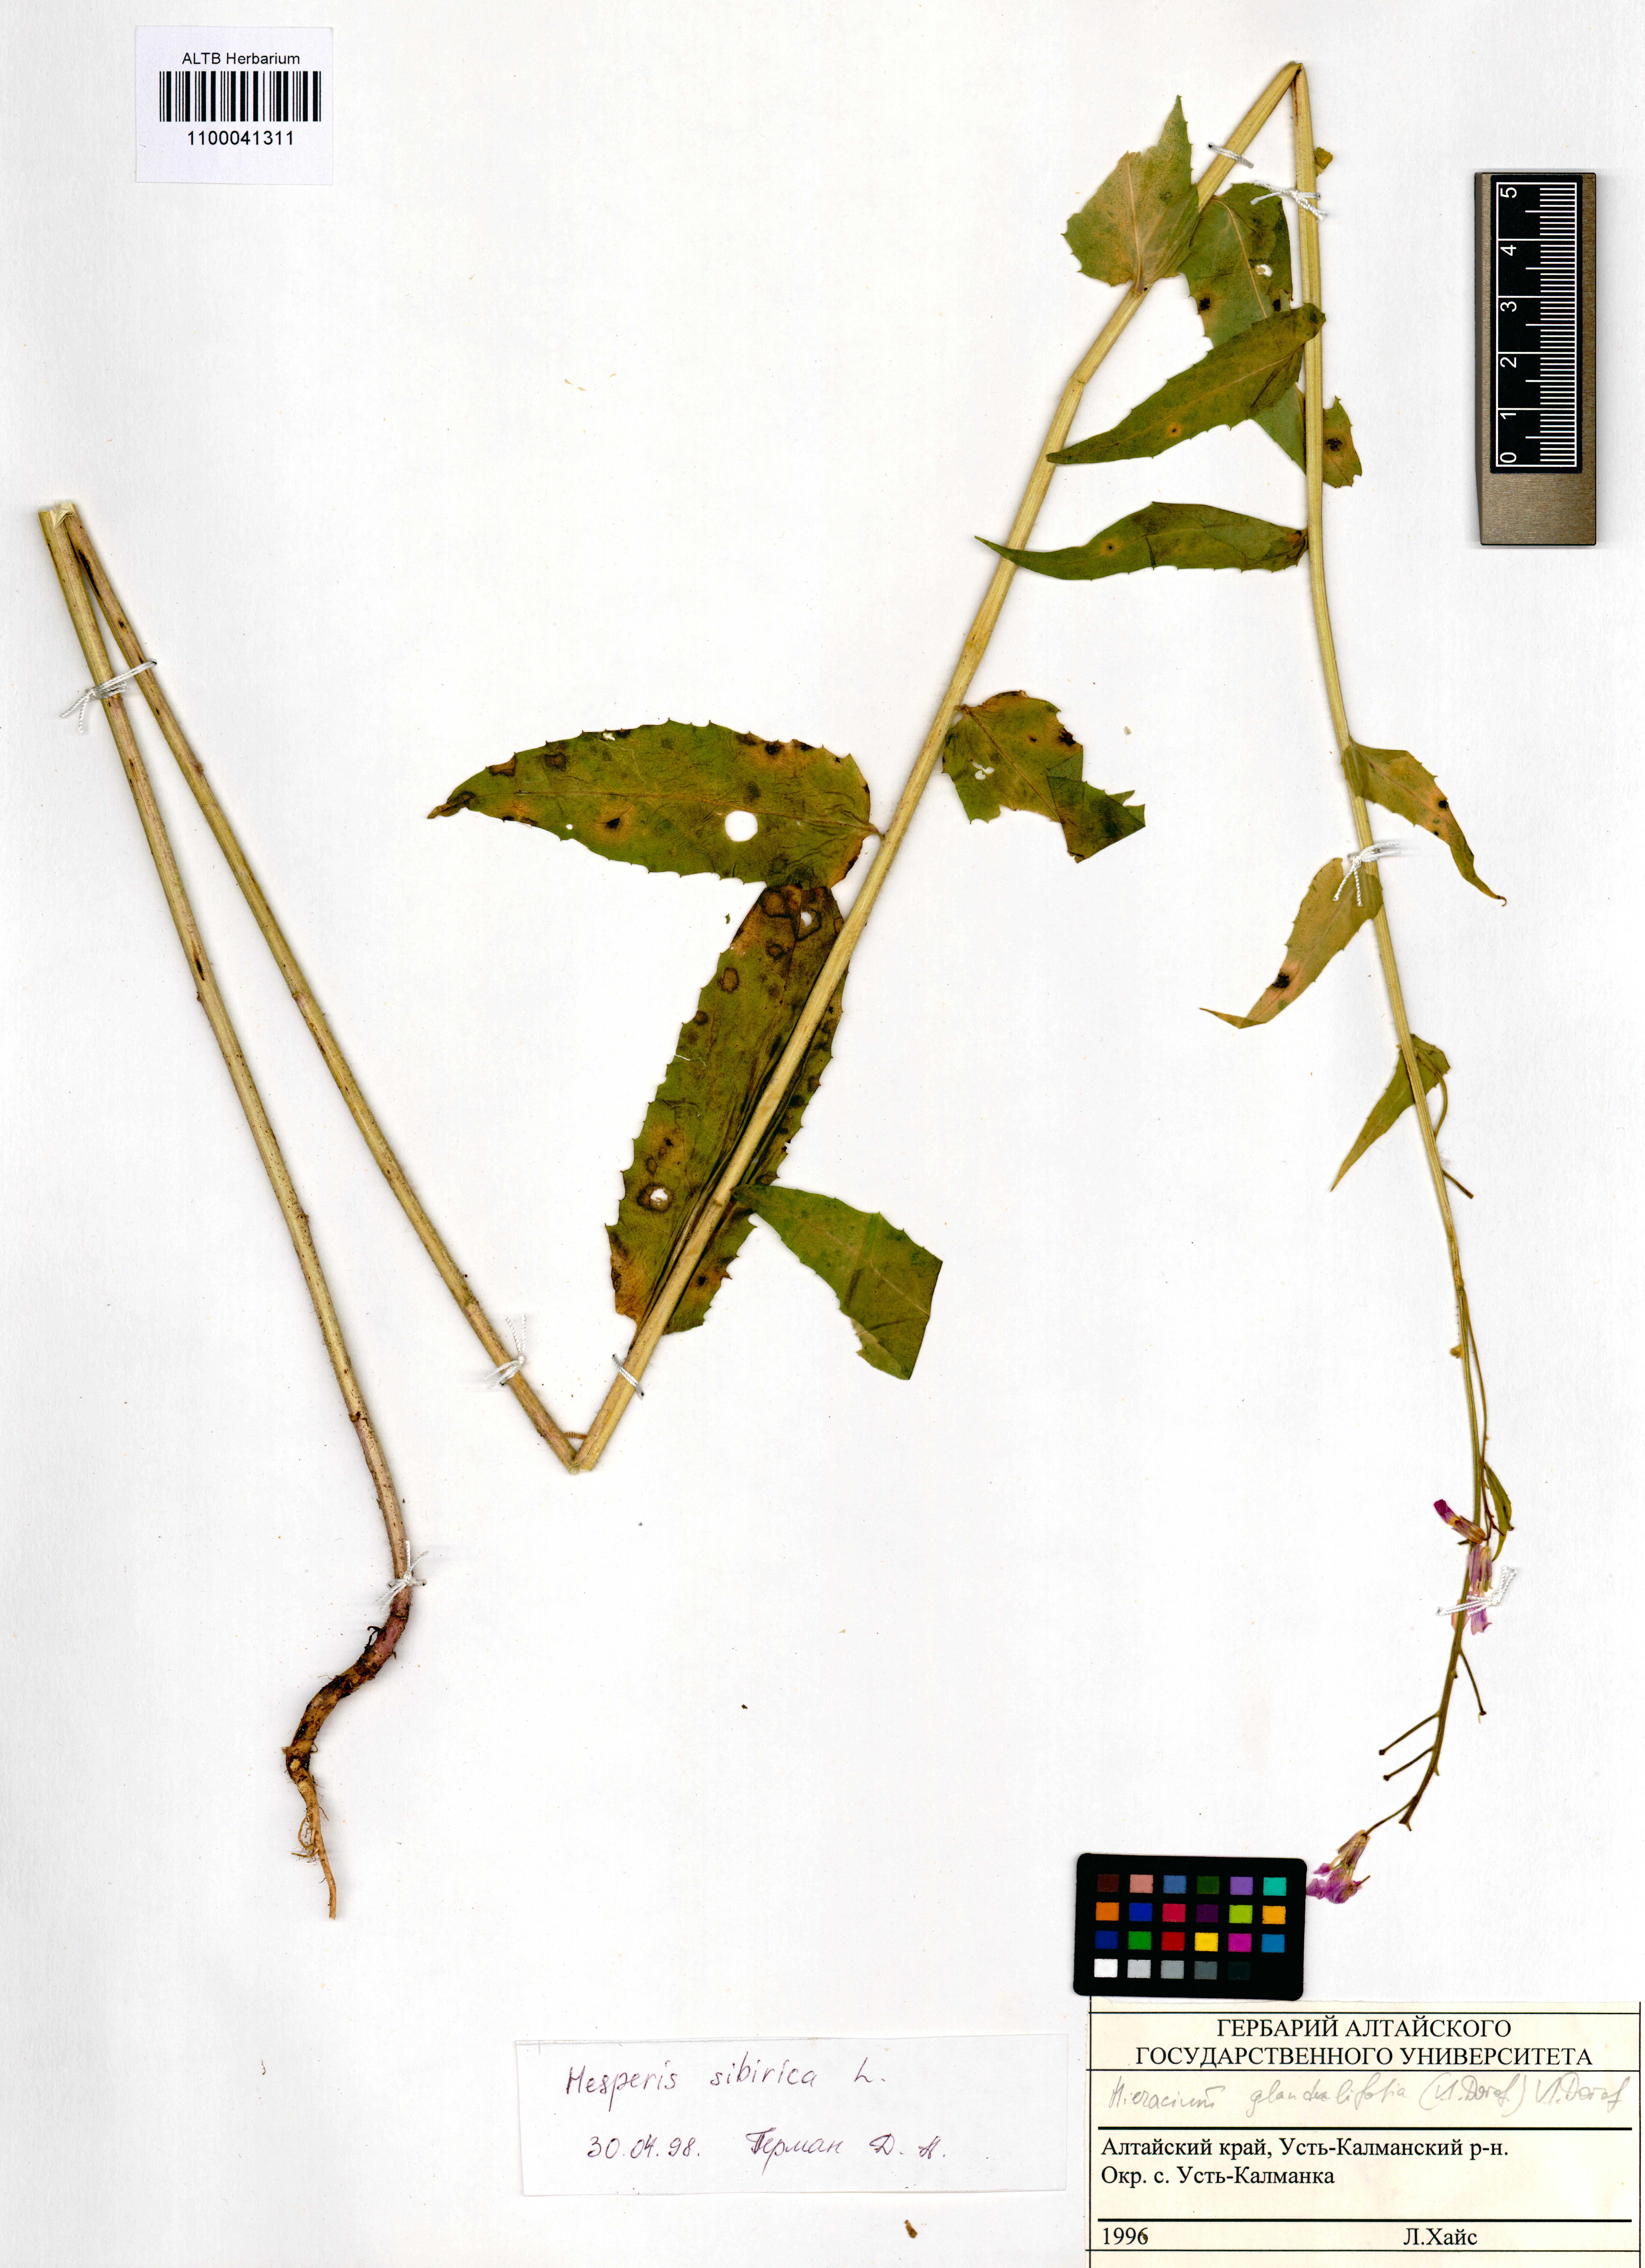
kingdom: Plantae
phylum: Tracheophyta
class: Magnoliopsida
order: Brassicales
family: Brassicaceae
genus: Hesperis
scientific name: Hesperis sibirica
